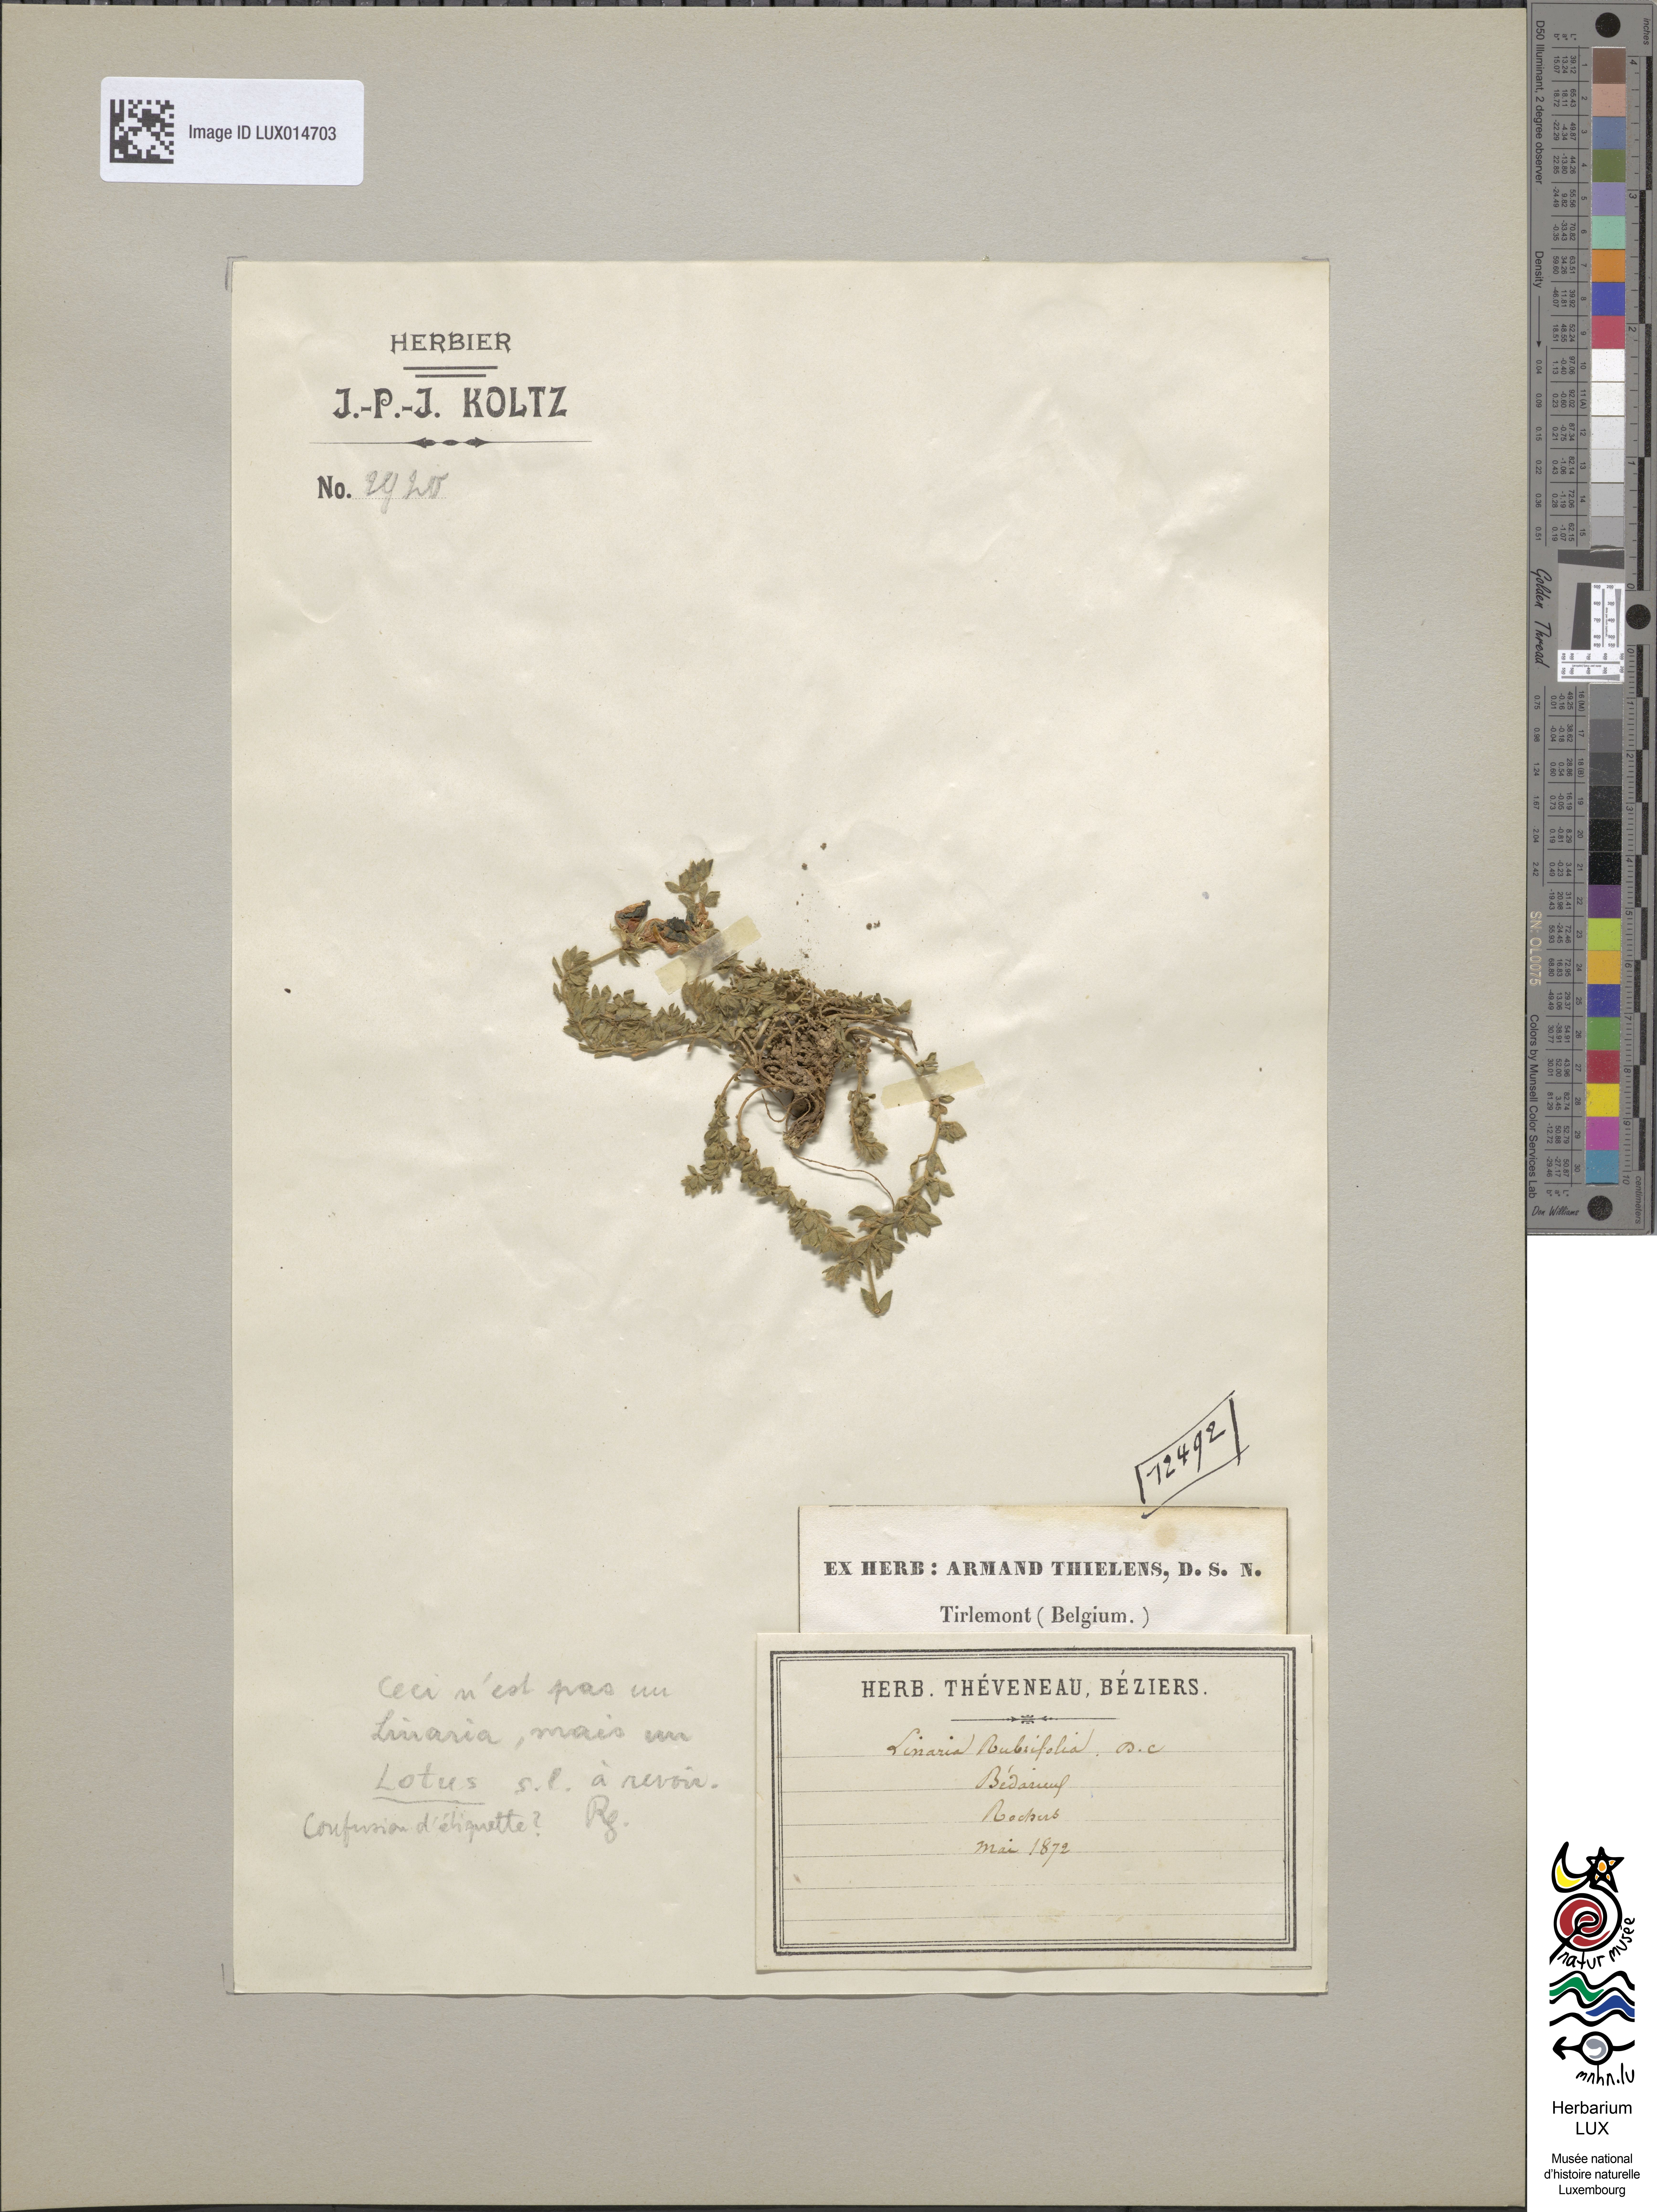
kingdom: Plantae
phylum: Tracheophyta
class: Magnoliopsida
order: Fabales
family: Fabaceae
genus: Lotus
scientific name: Lotus
